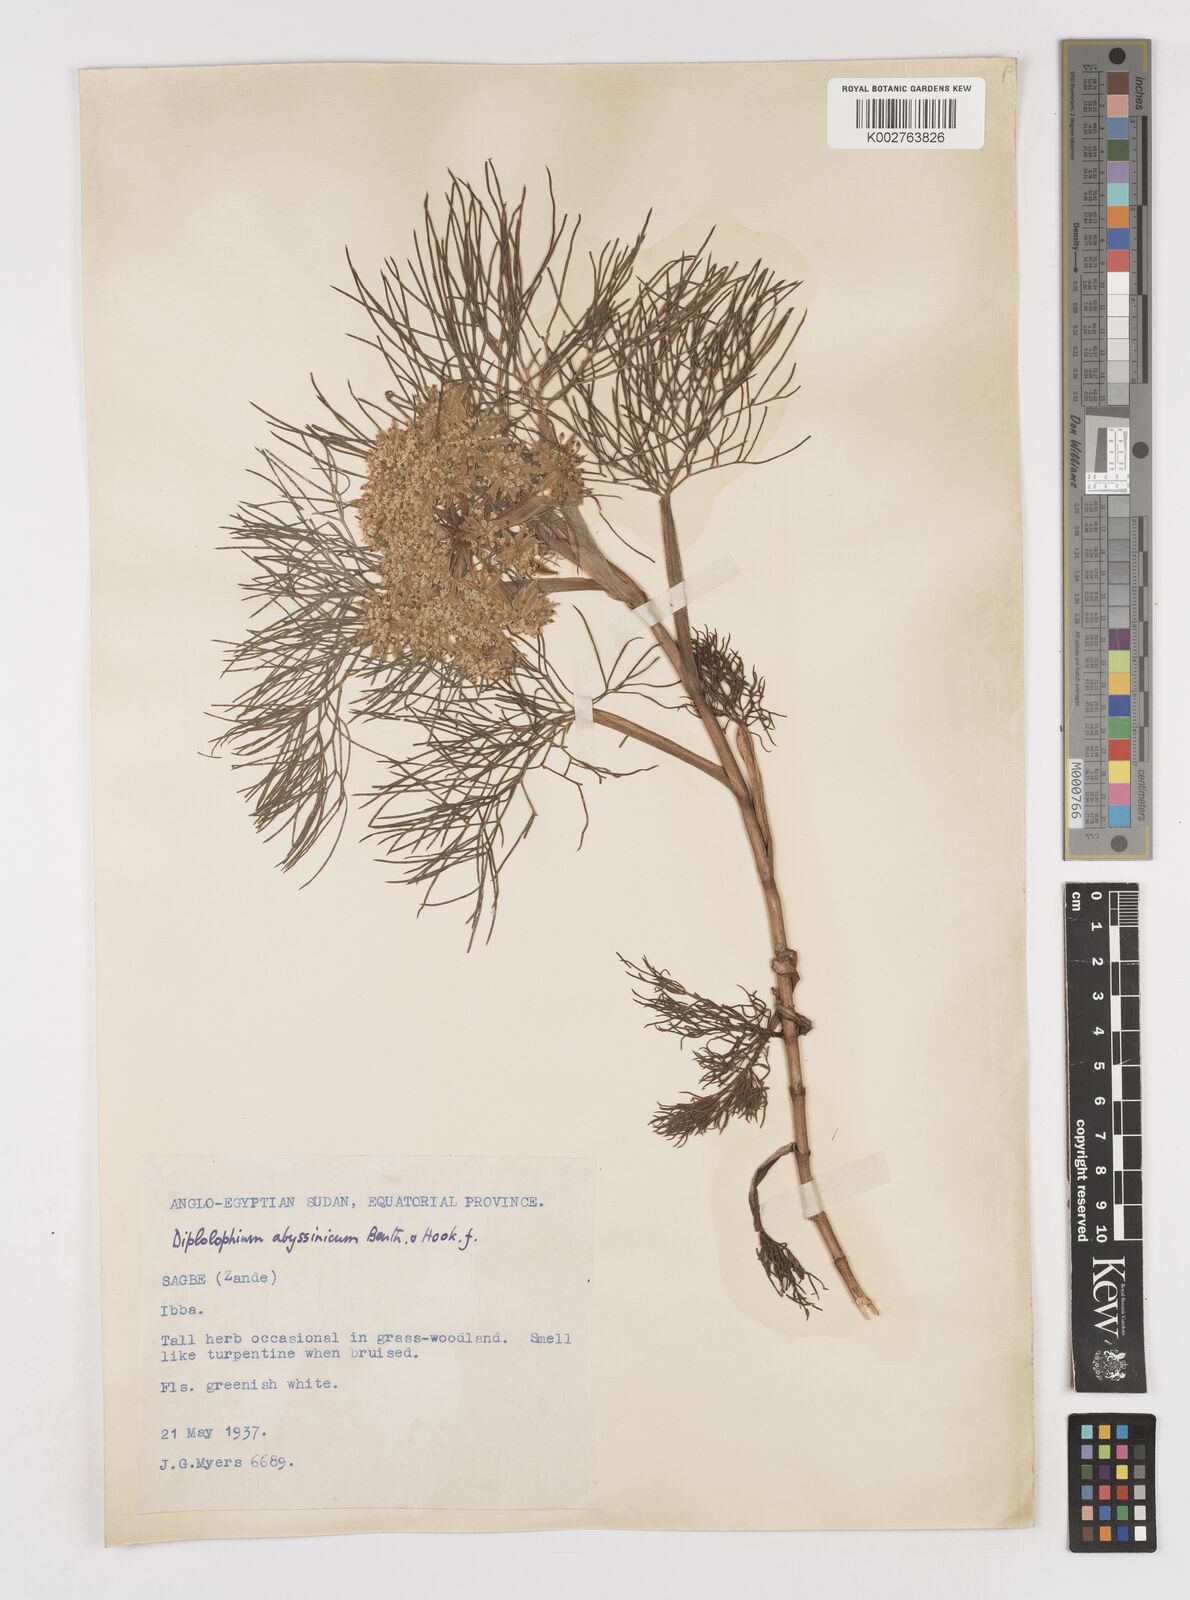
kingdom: Plantae
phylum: Tracheophyta
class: Magnoliopsida
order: Apiales
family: Apiaceae
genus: Diplolophium
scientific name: Diplolophium africanum
